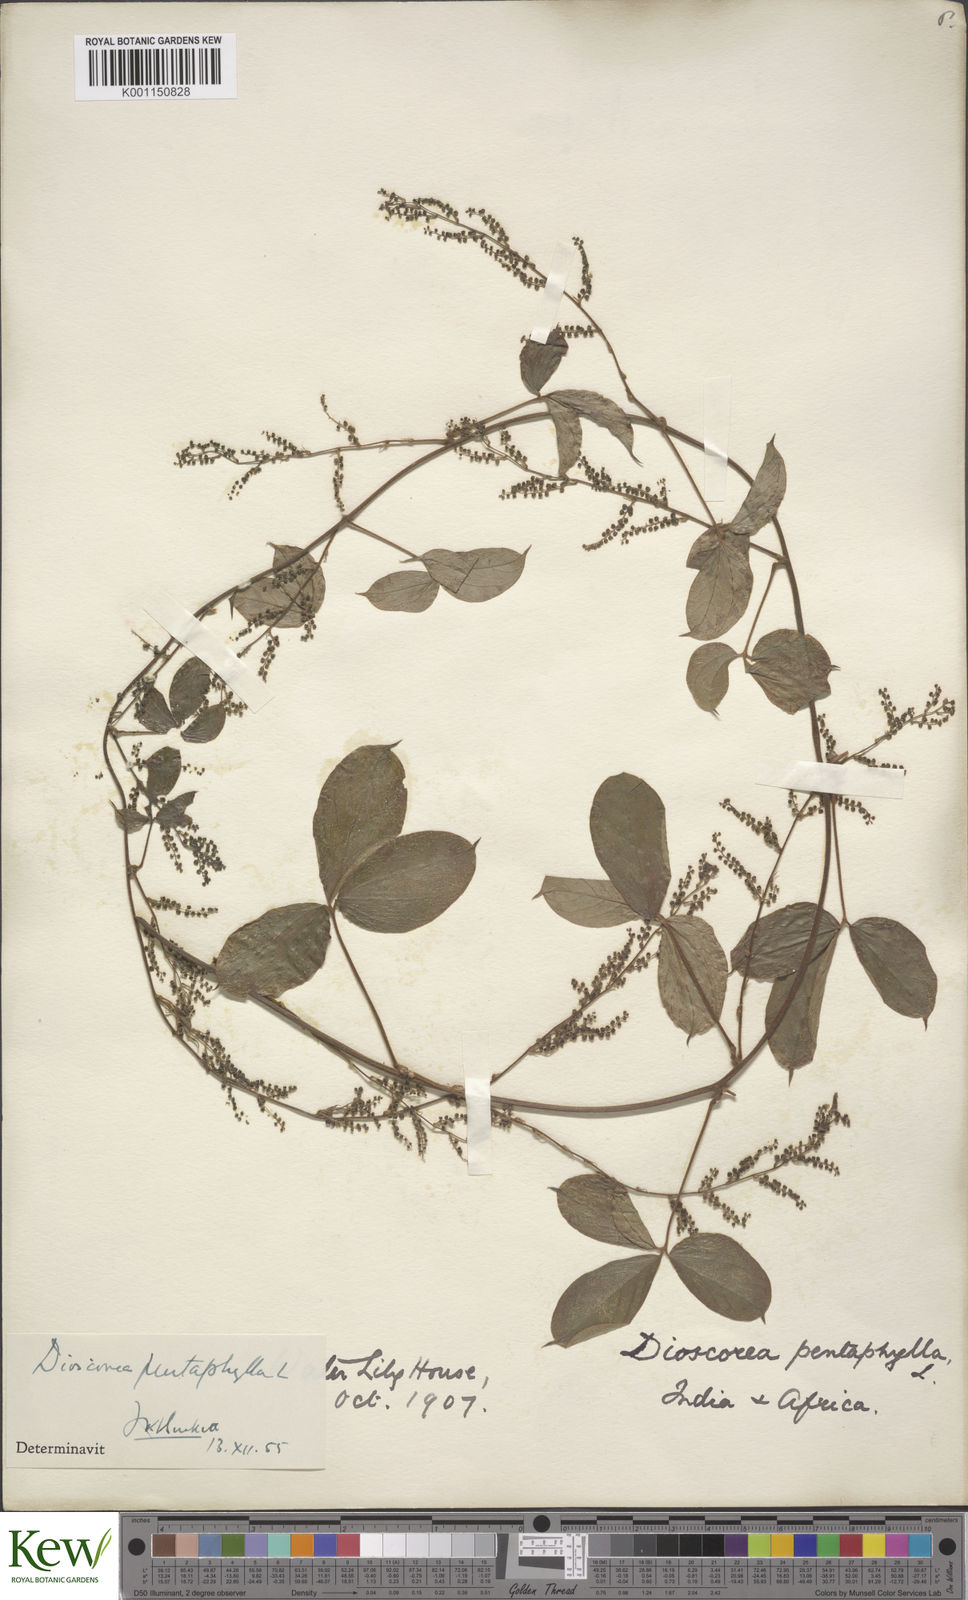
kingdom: Plantae
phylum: Tracheophyta
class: Liliopsida
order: Dioscoreales
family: Dioscoreaceae
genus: Dioscorea
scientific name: Dioscorea pentaphylla
